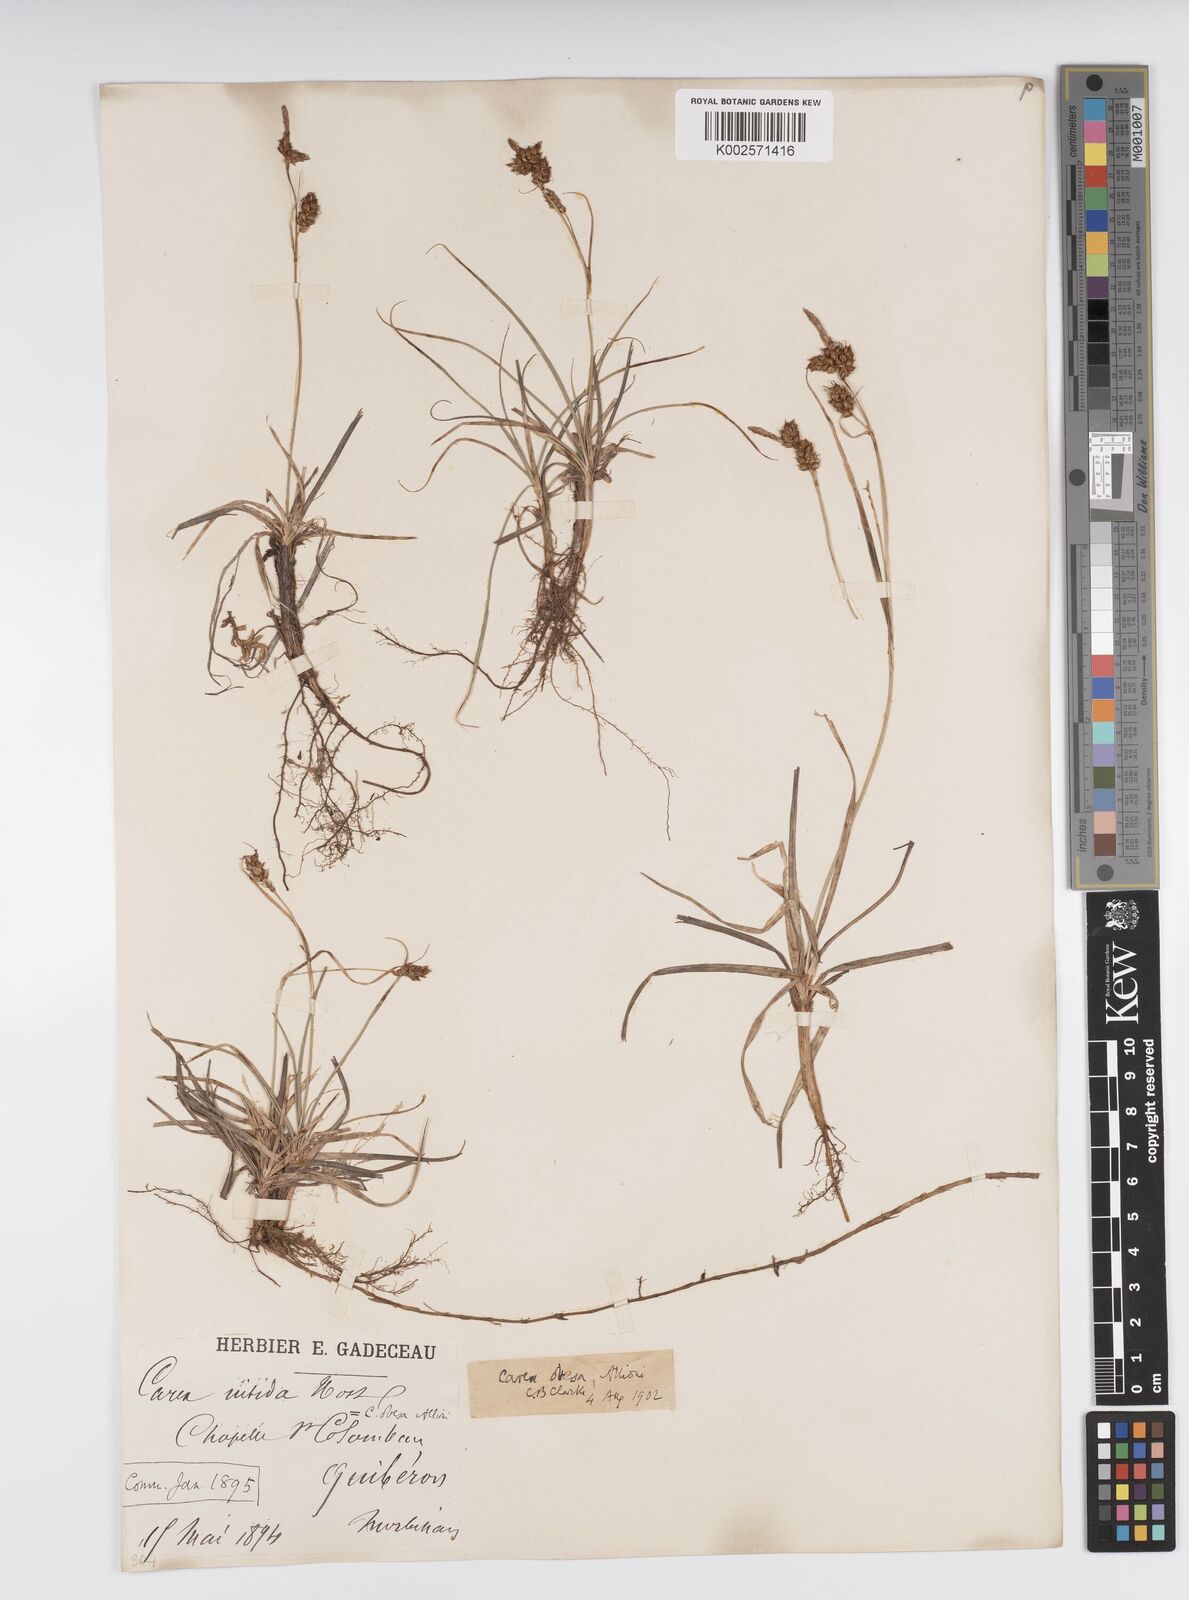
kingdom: Plantae
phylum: Tracheophyta
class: Liliopsida
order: Poales
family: Cyperaceae
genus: Carex
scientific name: Carex liparocarpos
